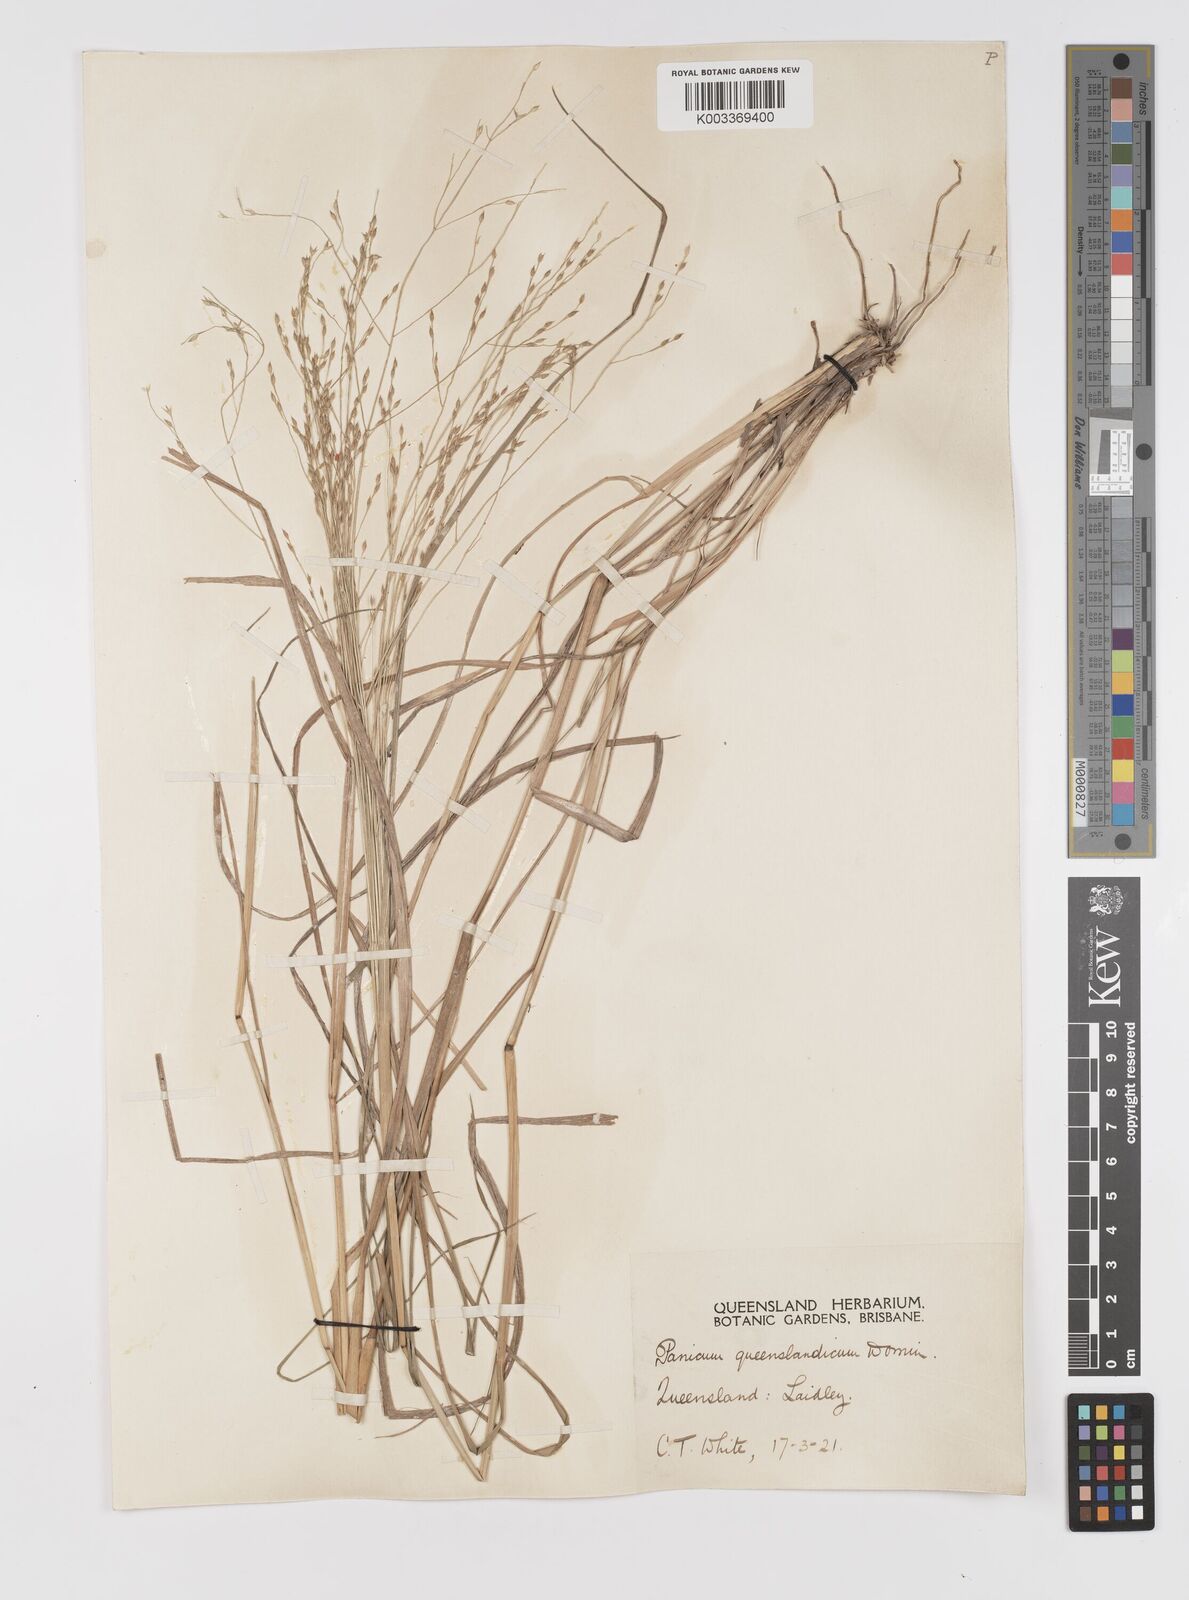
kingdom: Plantae
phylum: Tracheophyta
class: Liliopsida
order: Poales
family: Poaceae
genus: Panicum
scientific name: Panicum queenslandicum
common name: Yabila grass
